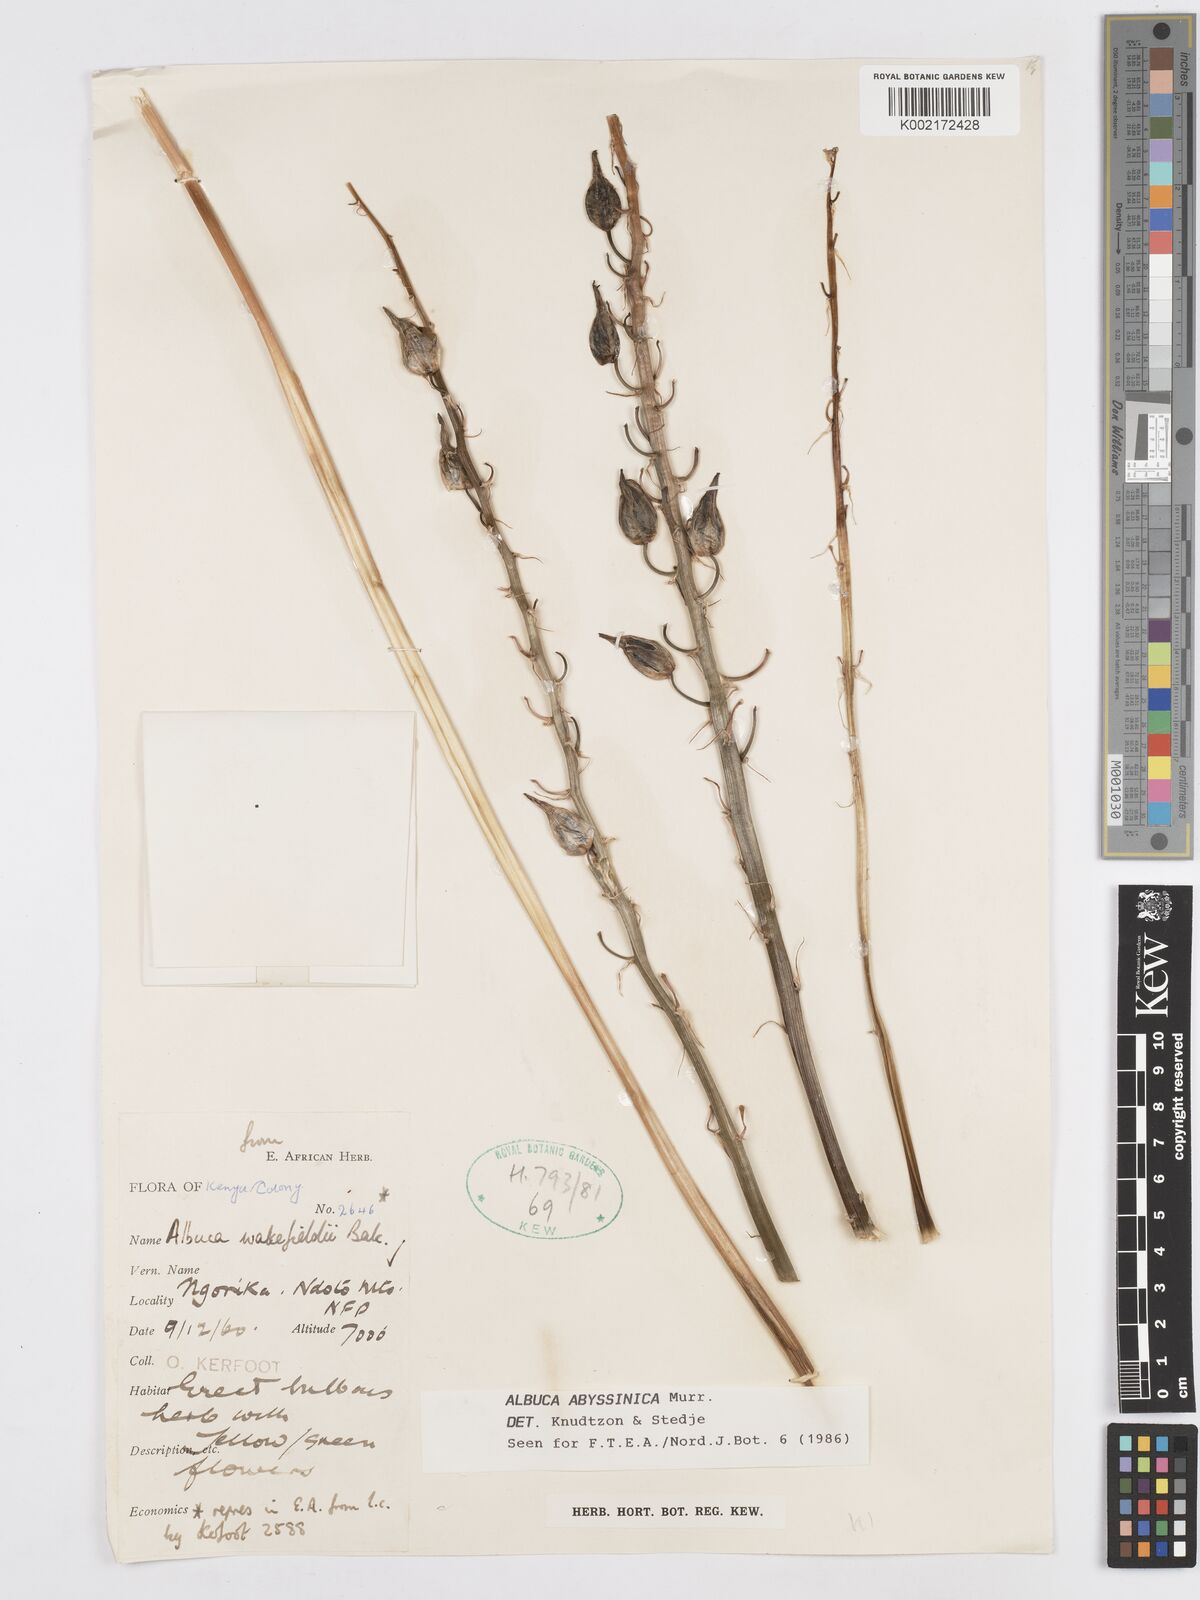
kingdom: Plantae
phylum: Tracheophyta
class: Liliopsida
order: Asparagales
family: Asparagaceae
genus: Albuca
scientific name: Albuca abyssinica
